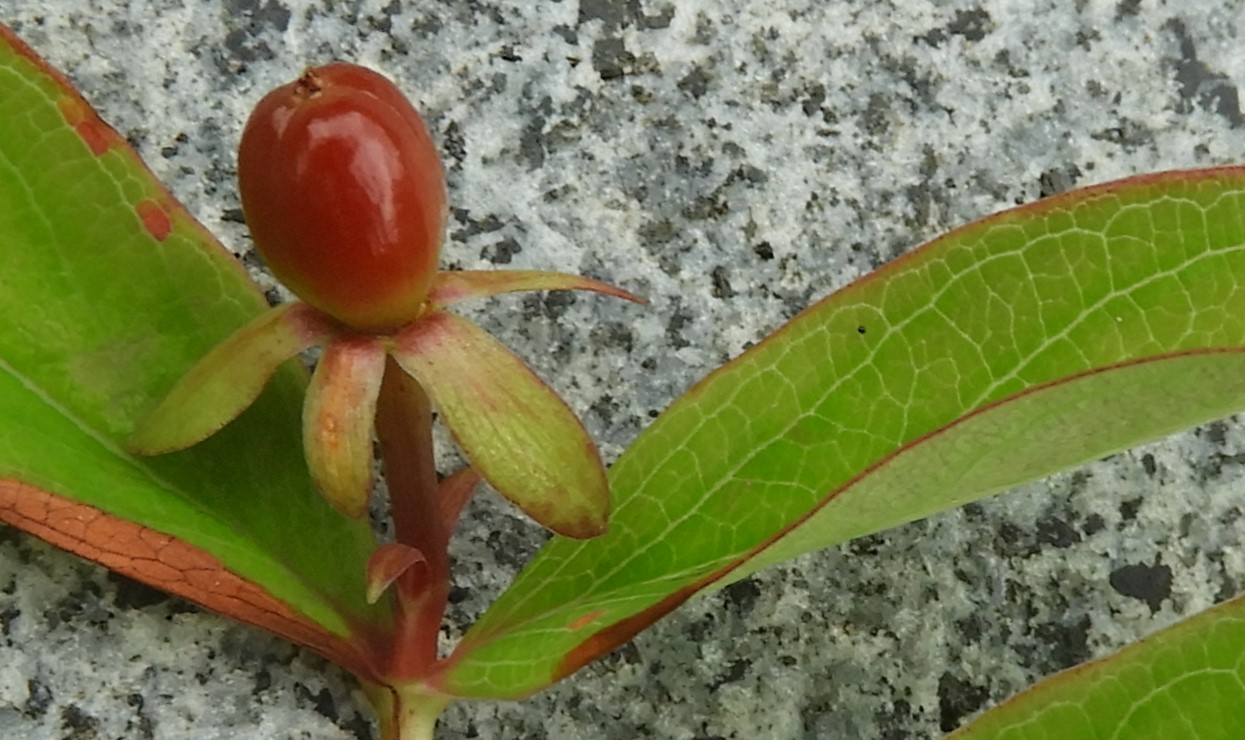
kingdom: Fungi
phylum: Basidiomycota
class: Pucciniomycetes
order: Pucciniales
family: Melampsoraceae
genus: Melampsora
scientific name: Melampsora hypericorum
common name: Tutsan rust
